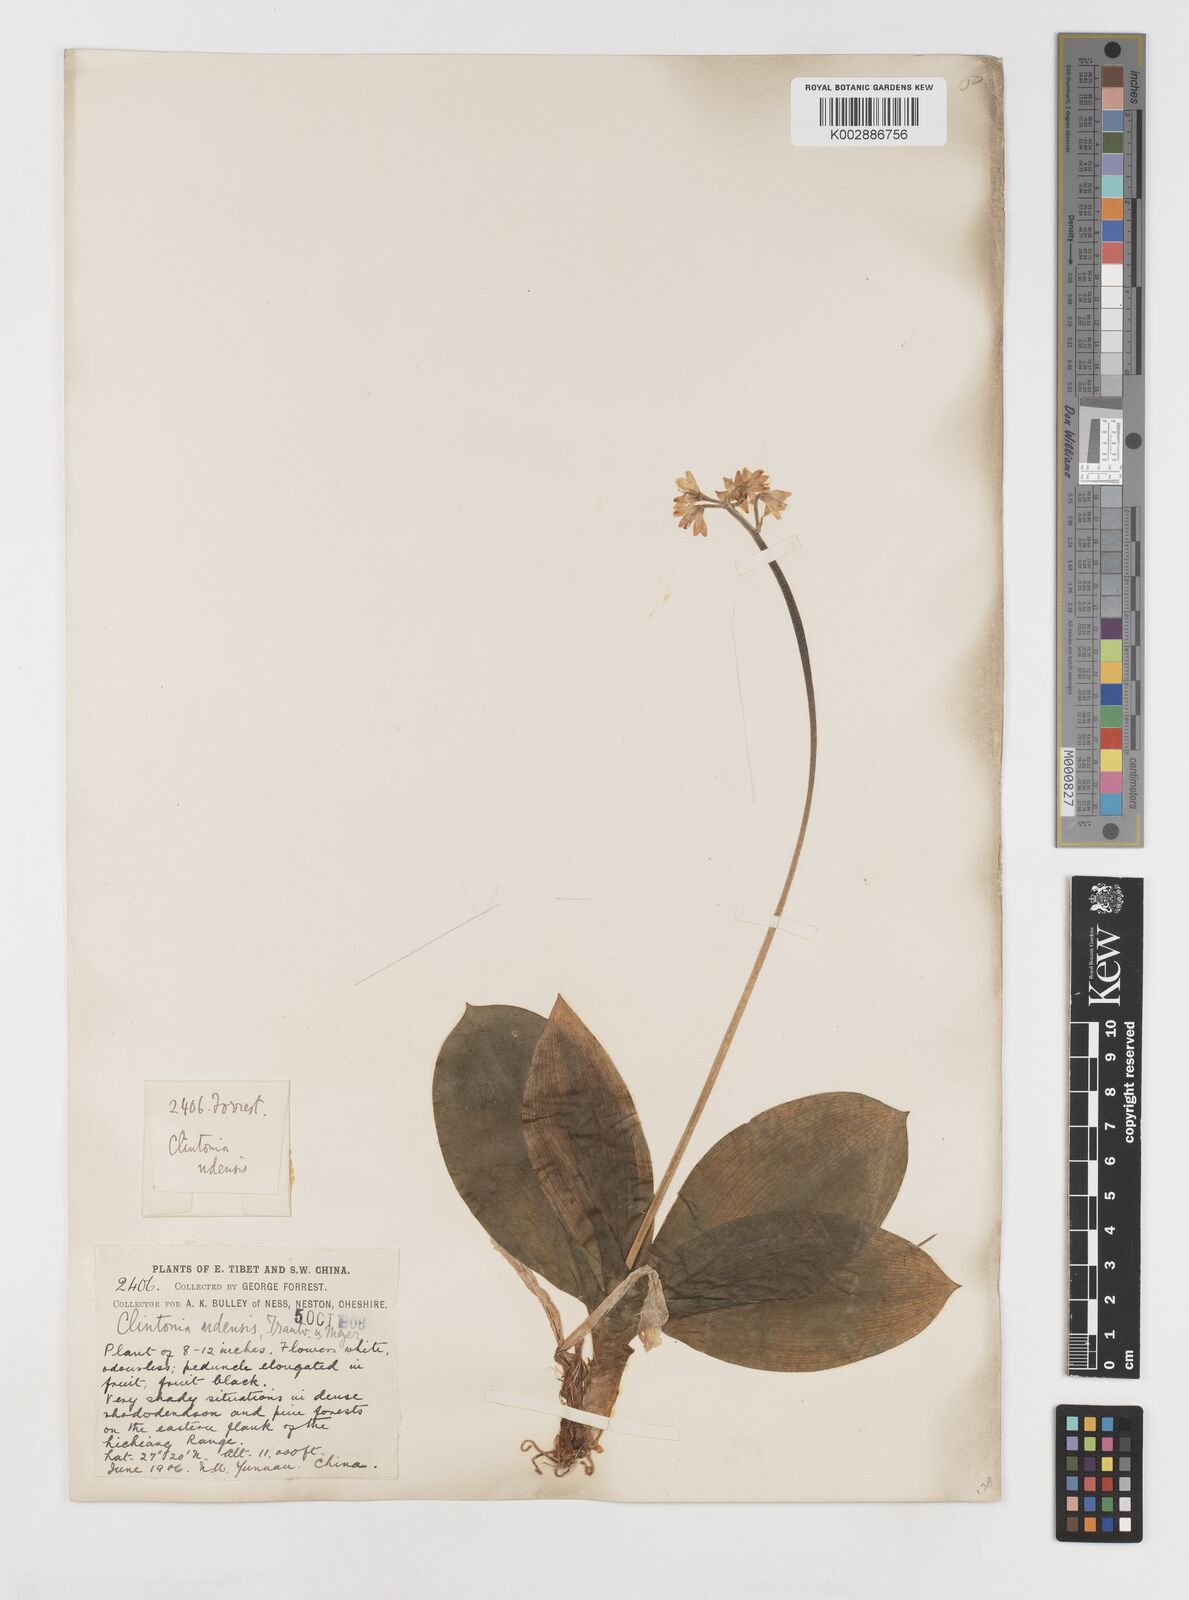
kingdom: Plantae
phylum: Tracheophyta
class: Liliopsida
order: Liliales
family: Liliaceae
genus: Clintonia
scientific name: Clintonia udensis
